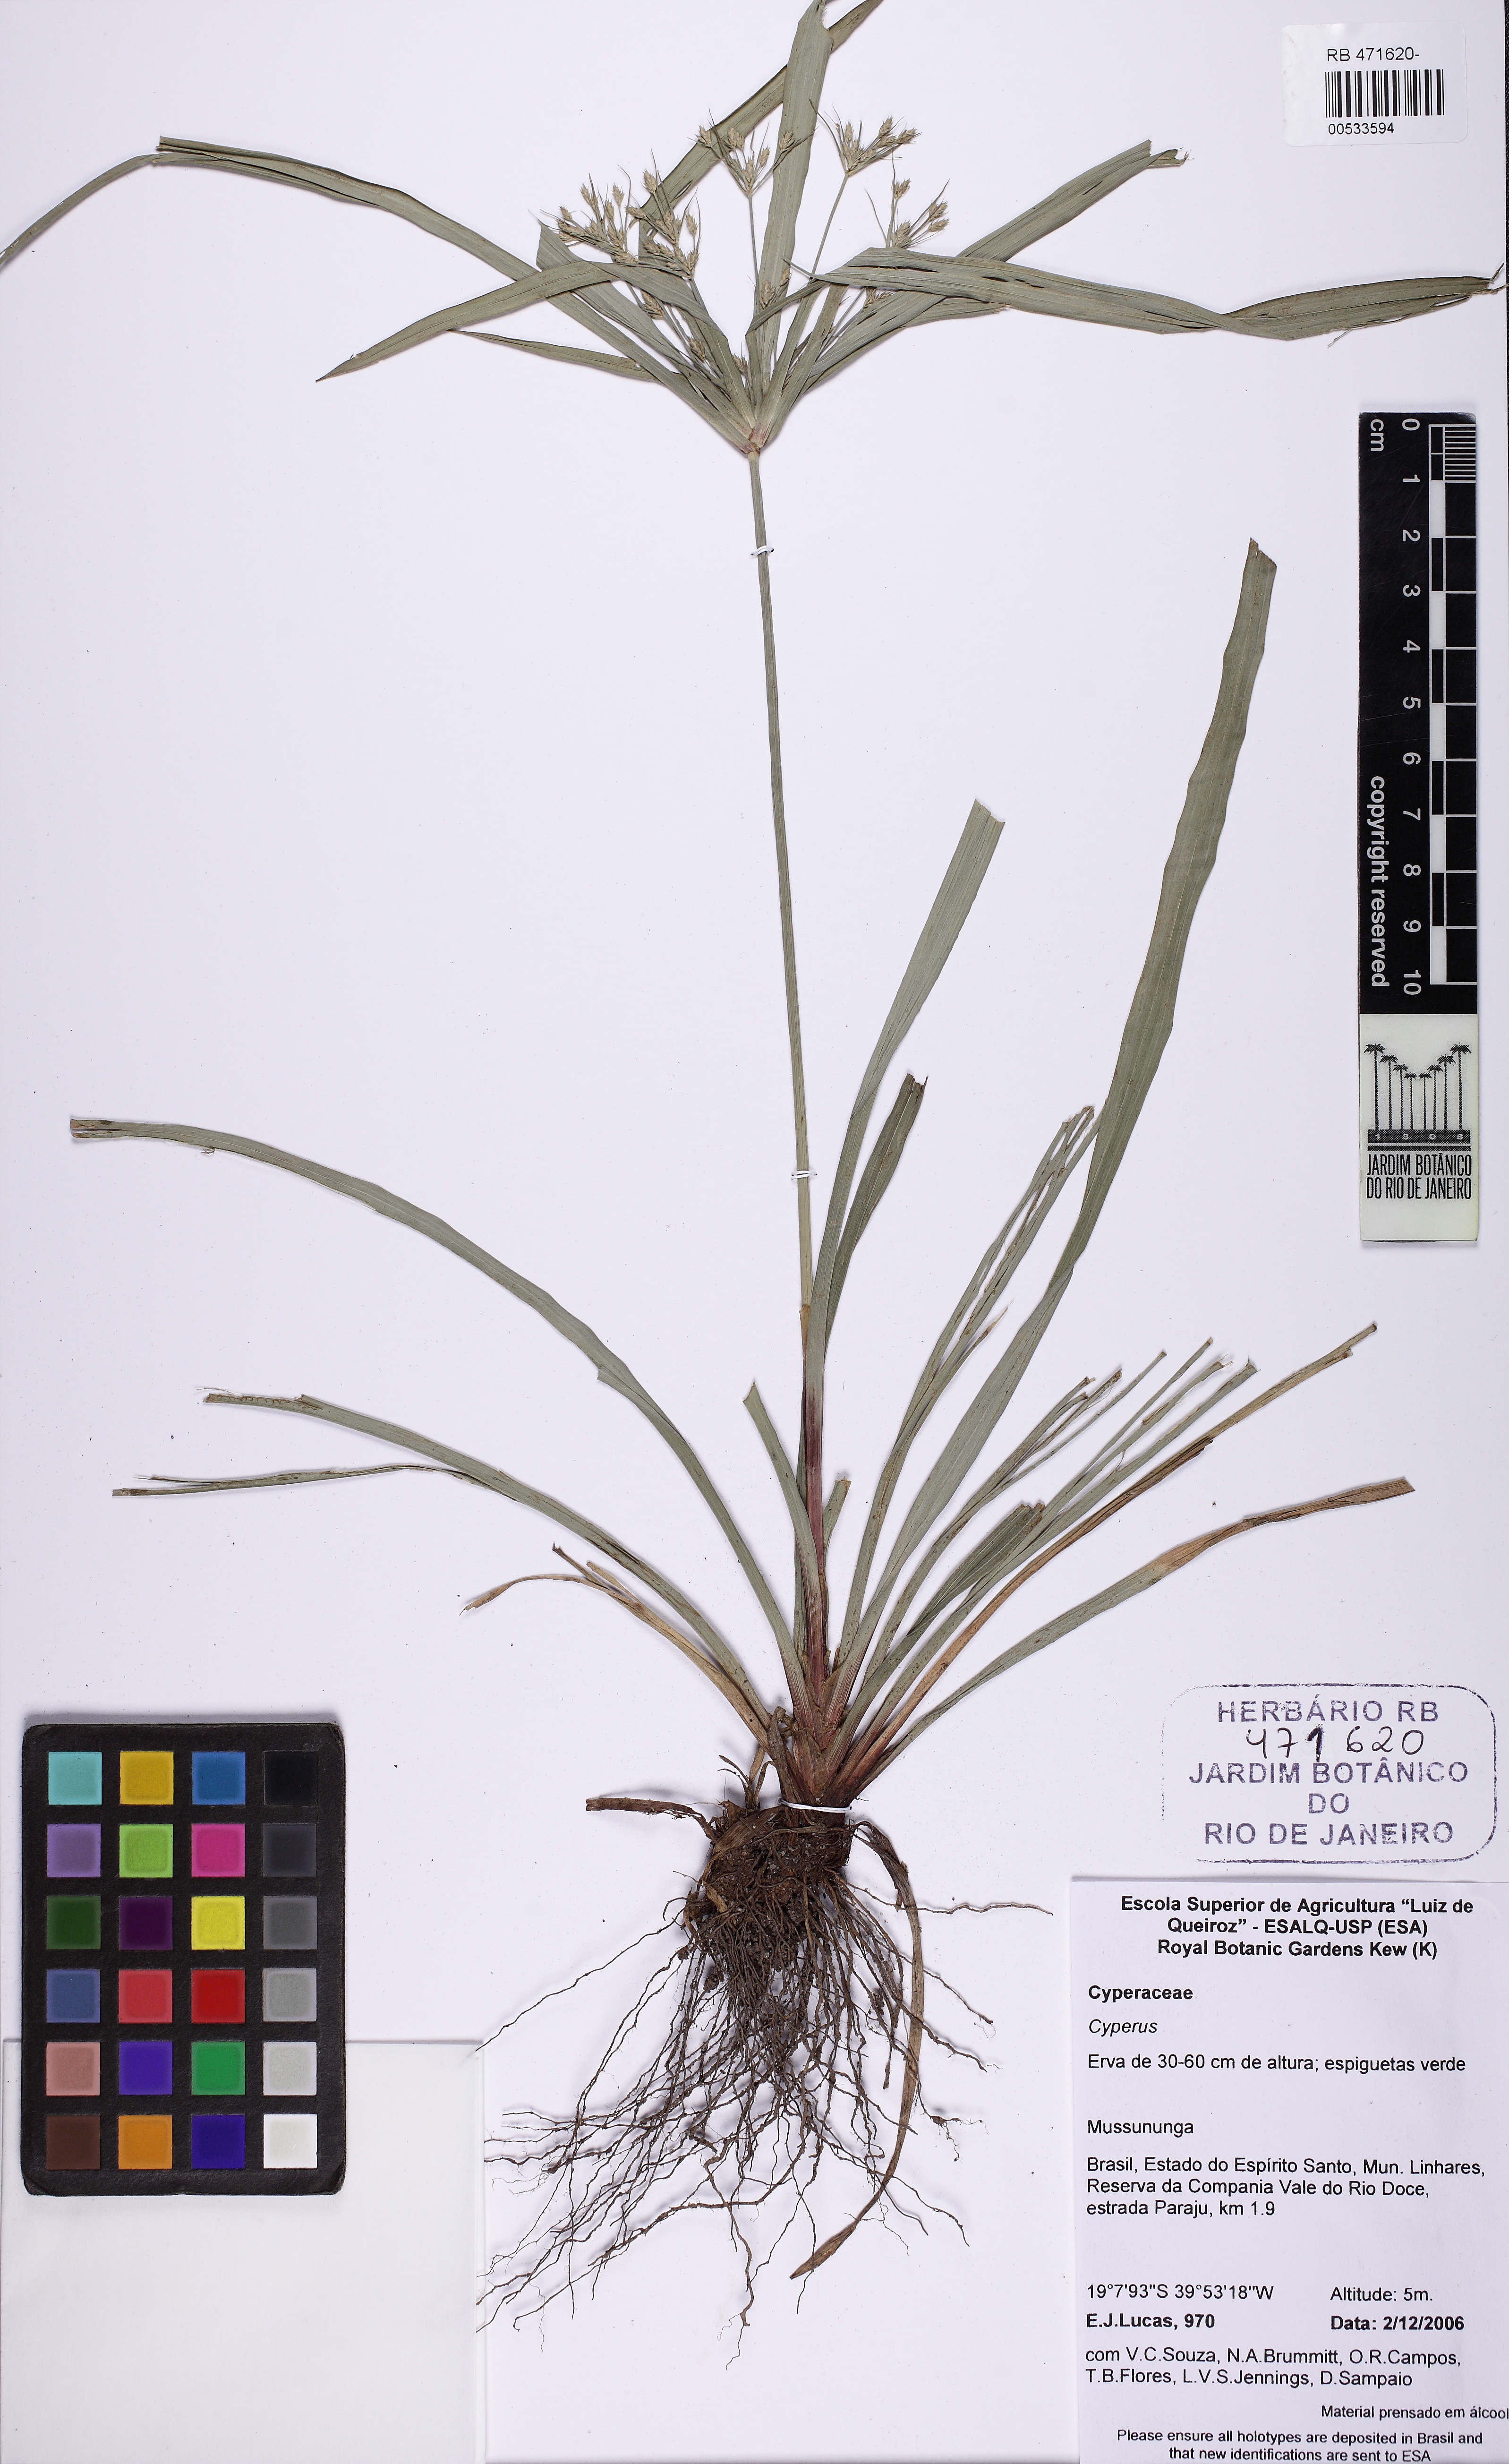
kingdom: Plantae
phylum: Tracheophyta
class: Liliopsida
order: Poales
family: Cyperaceae
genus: Cyperus
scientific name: Cyperus
